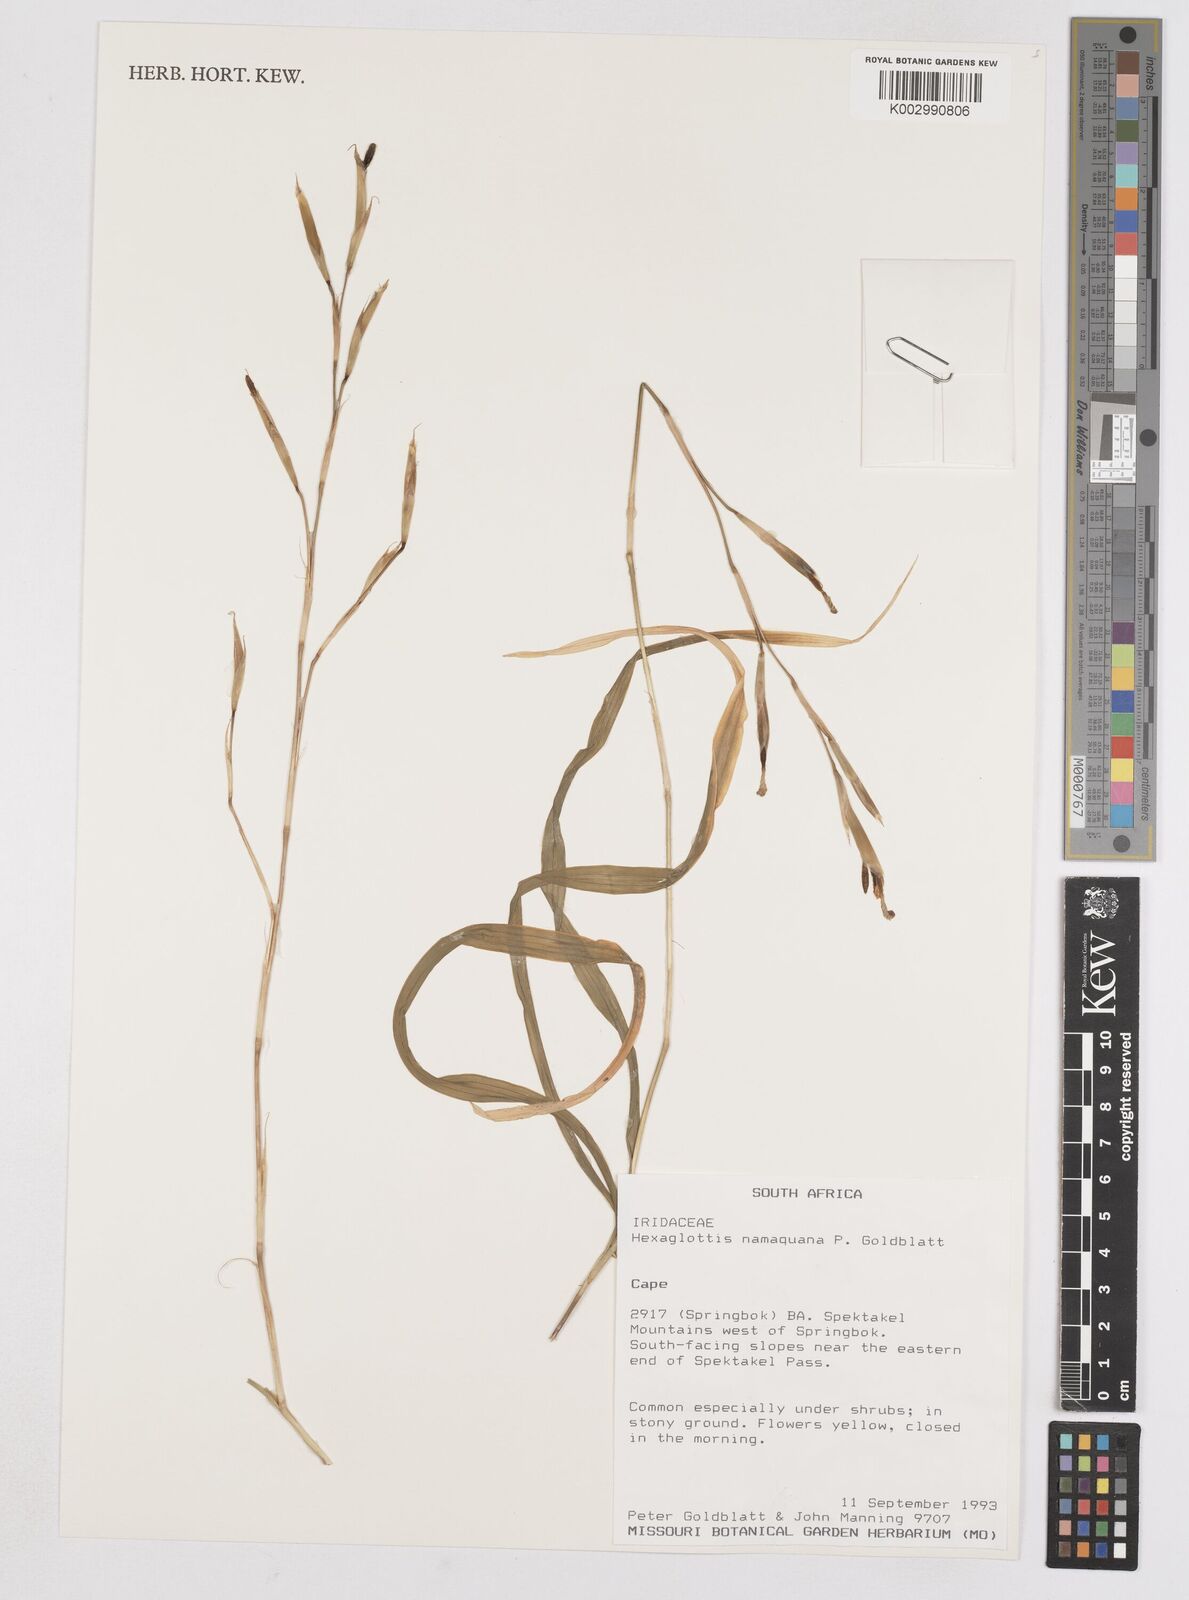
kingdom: Plantae
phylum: Tracheophyta
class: Liliopsida
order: Asparagales
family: Iridaceae
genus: Moraea
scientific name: Moraea namaquamontana
